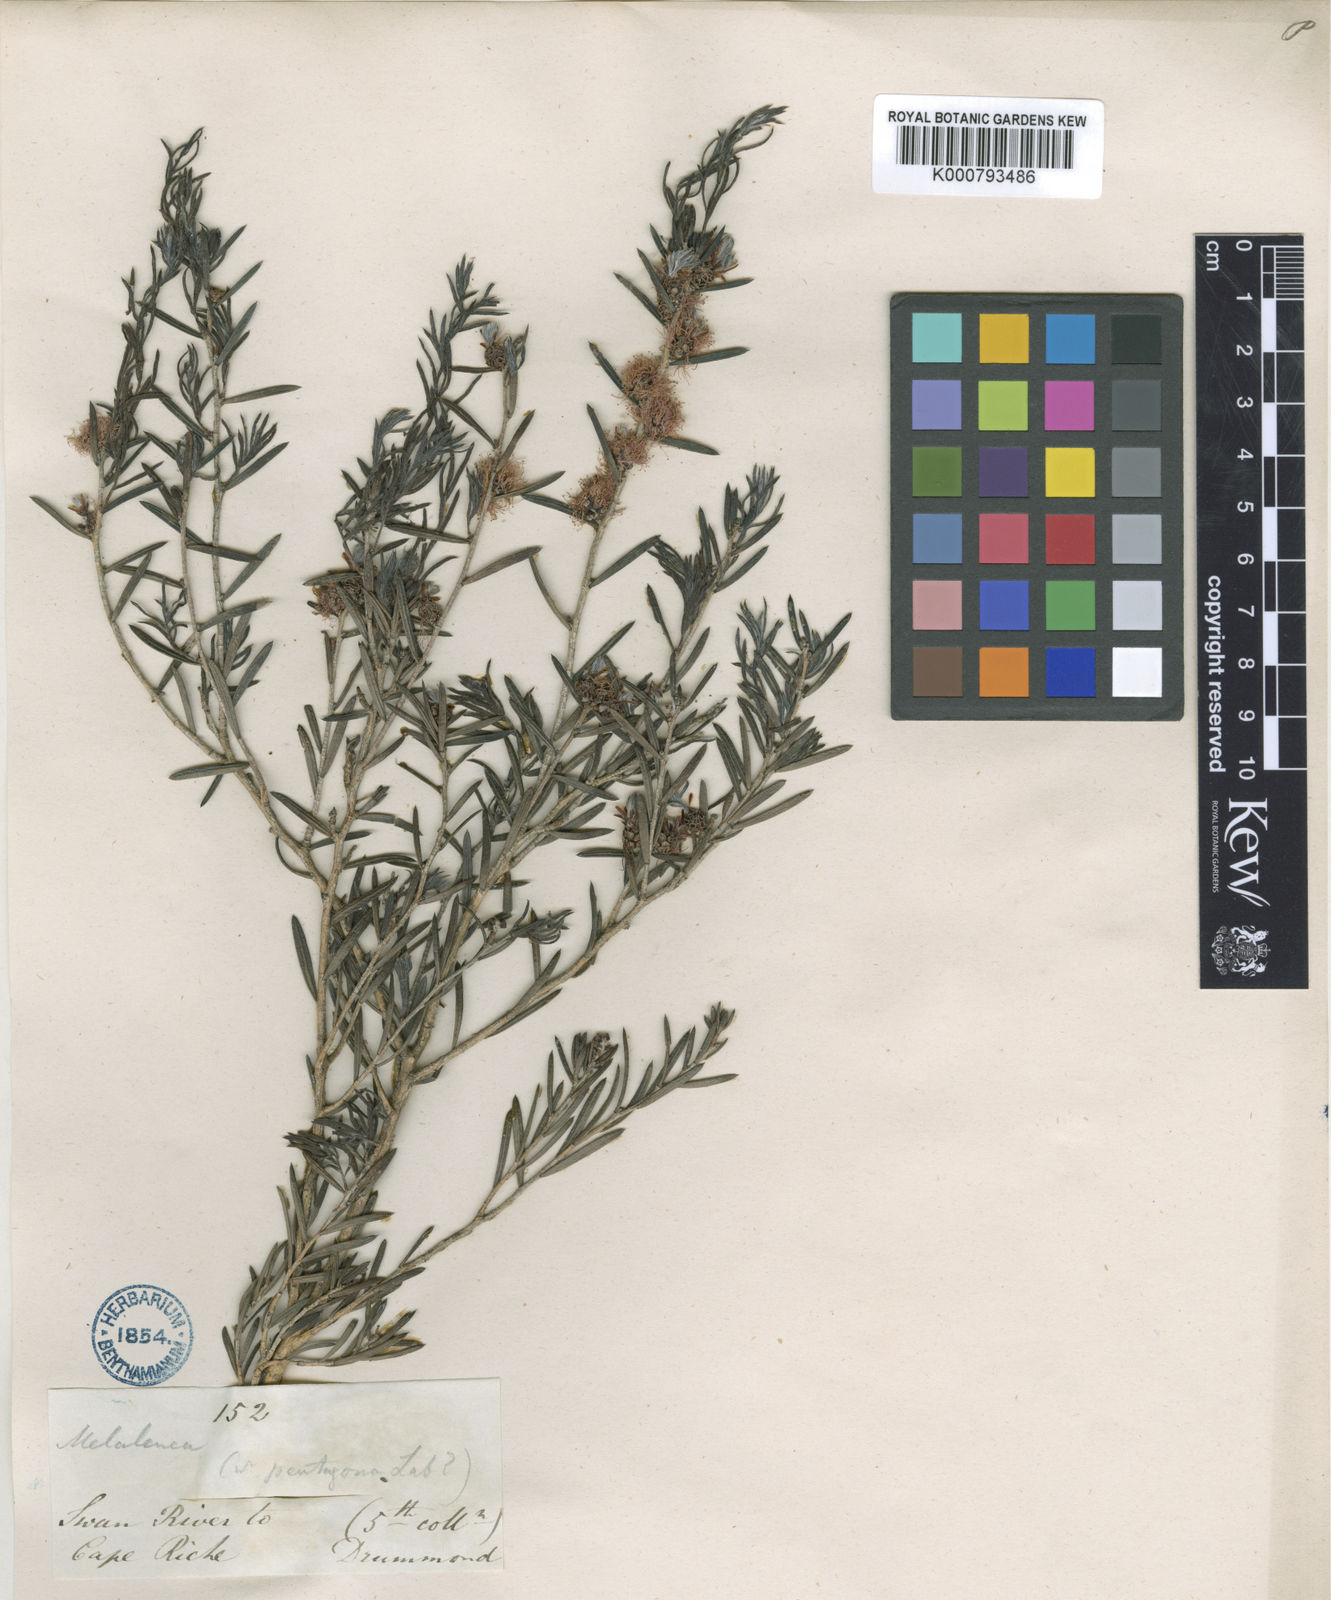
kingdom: Plantae
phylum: Tracheophyta
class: Magnoliopsida
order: Myrtales
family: Myrtaceae
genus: Melaleuca
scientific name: Melaleuca pentagona
